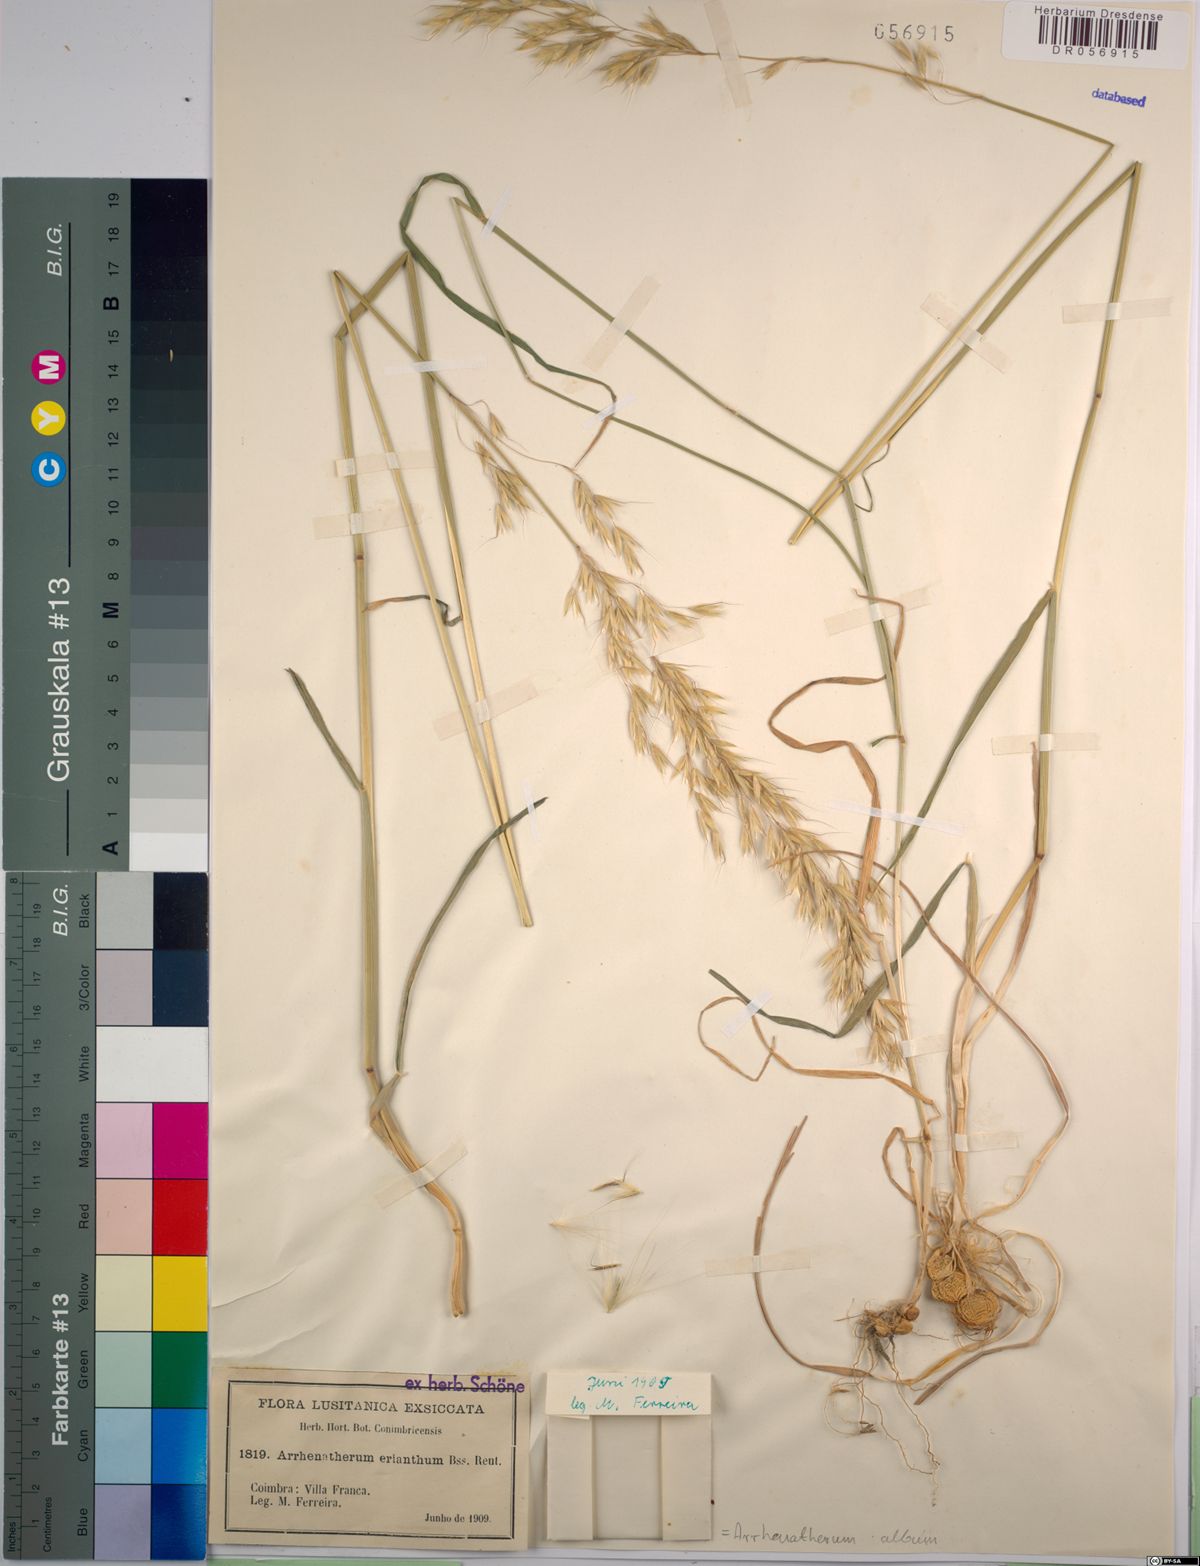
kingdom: Plantae
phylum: Tracheophyta
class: Liliopsida
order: Poales
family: Poaceae
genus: Arrhenatherum
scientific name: Arrhenatherum album
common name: Tall oat grass
